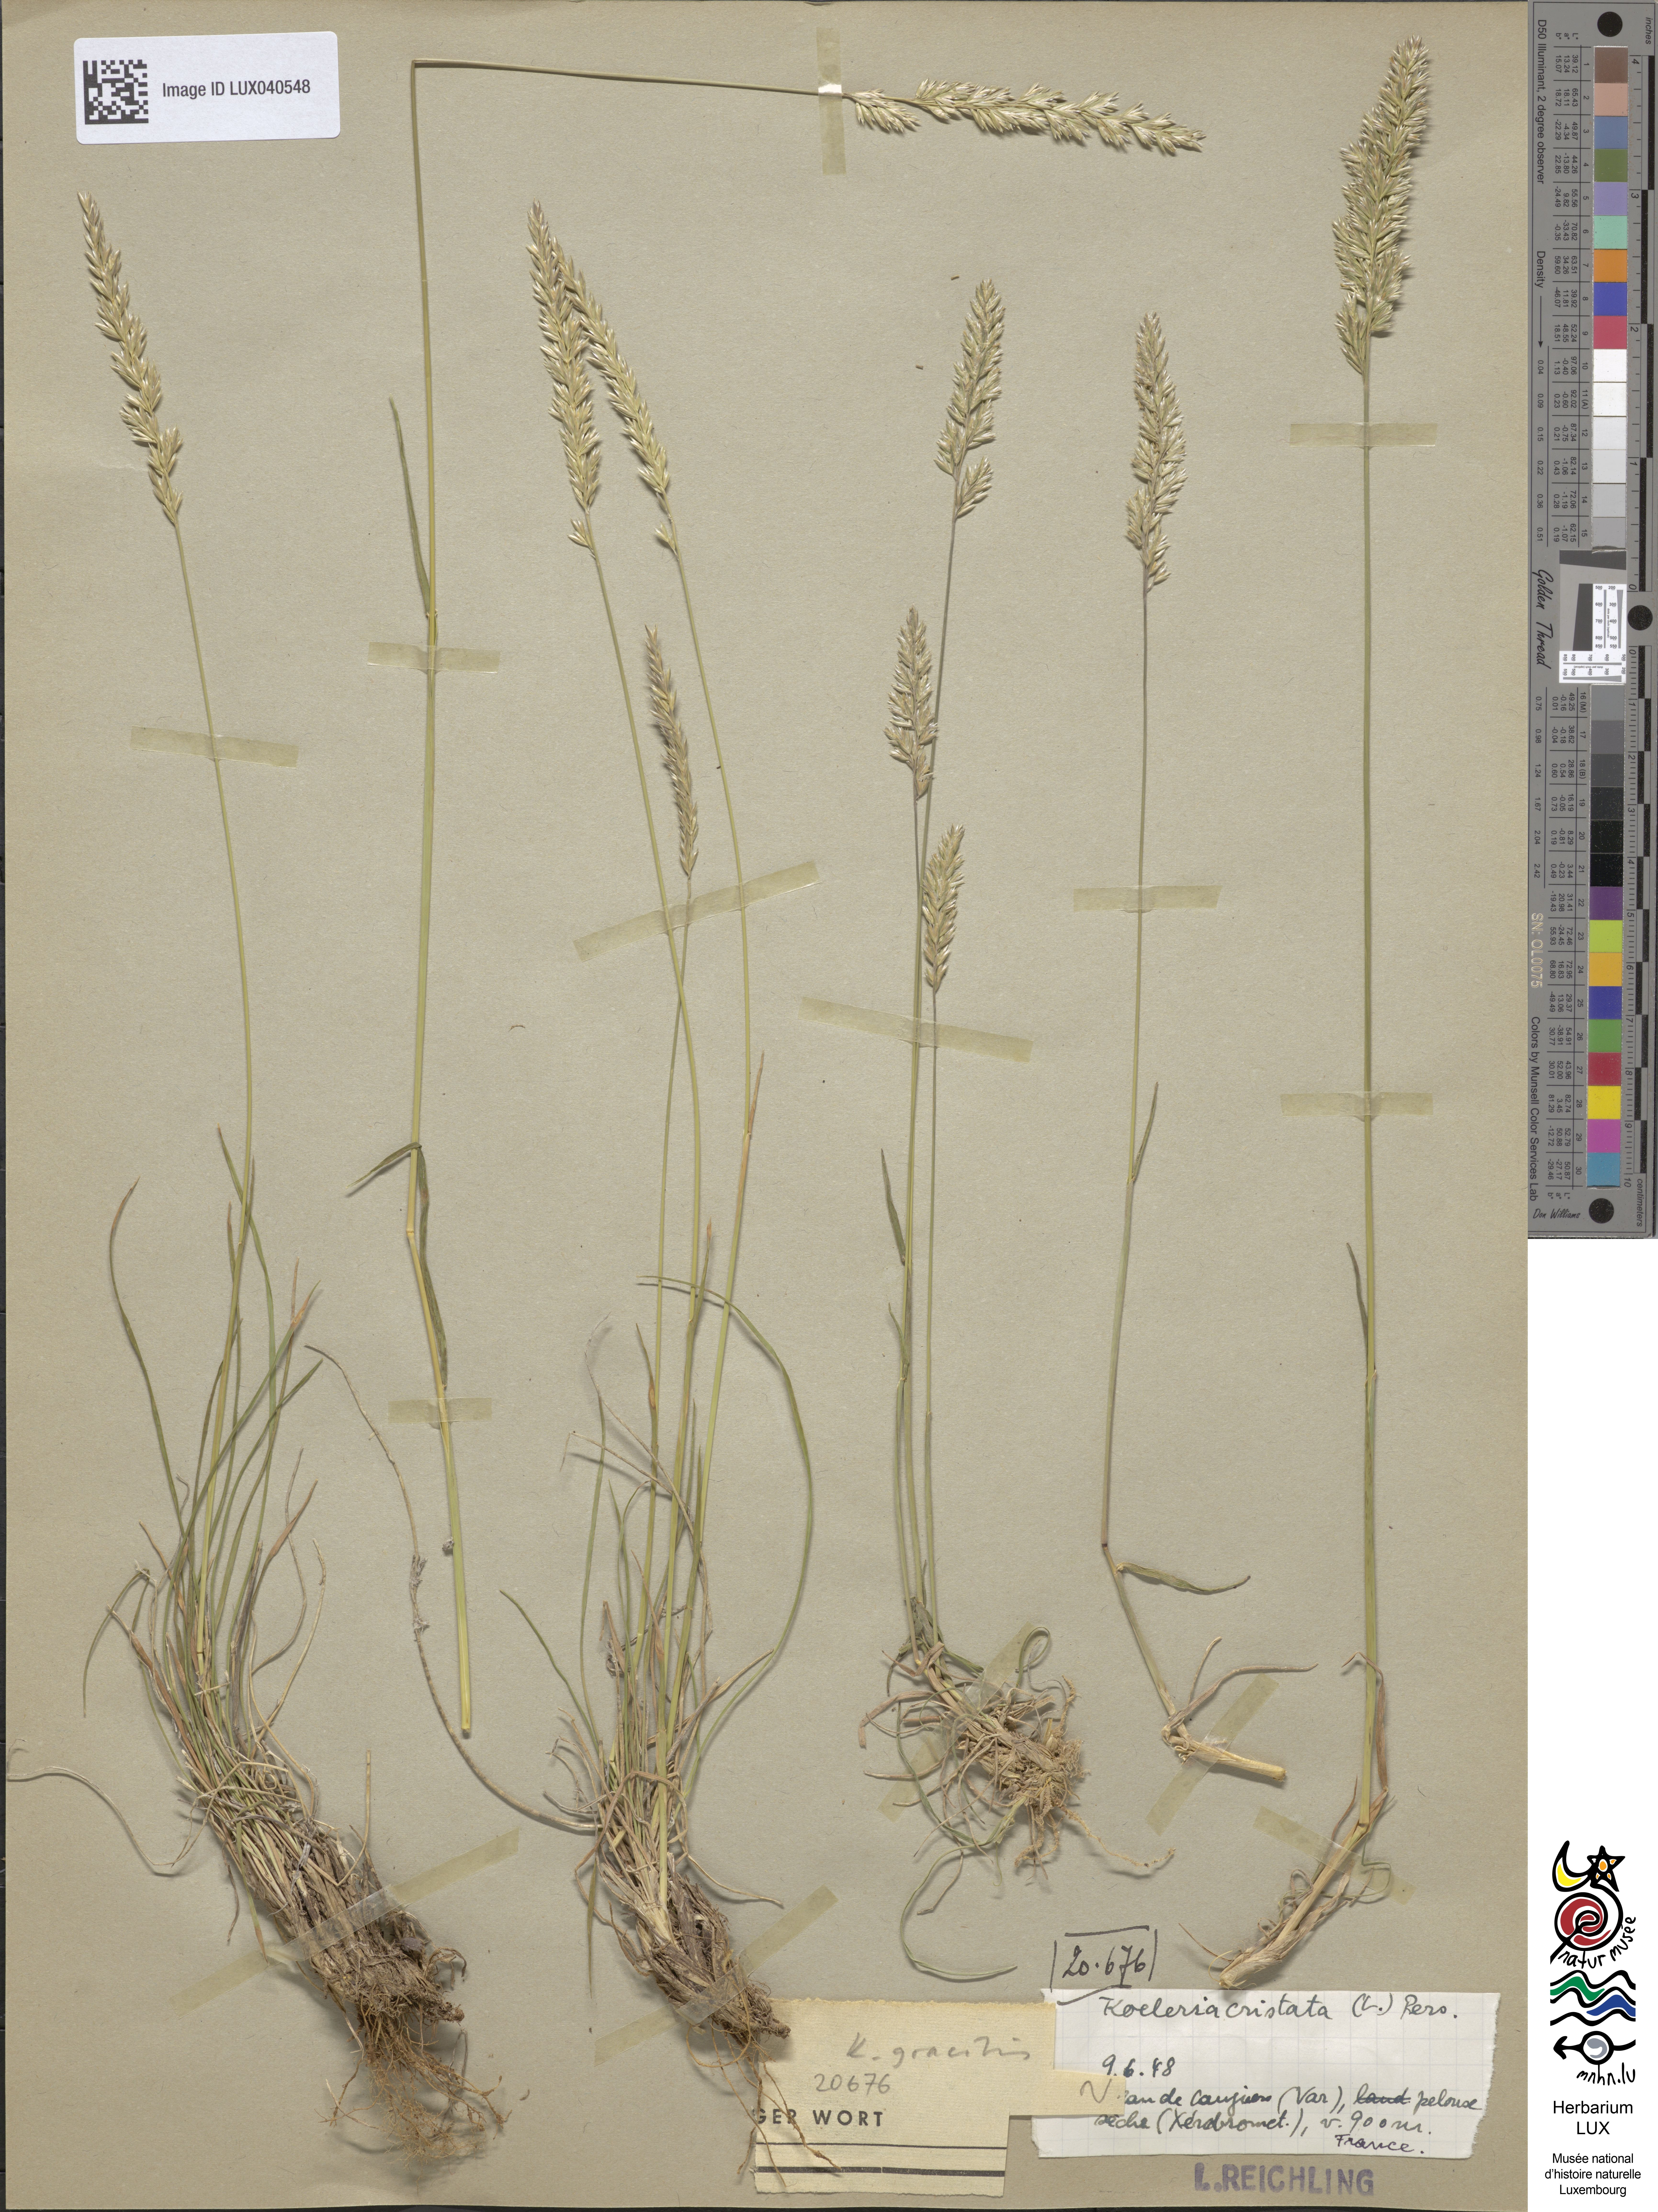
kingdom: Plantae
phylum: Tracheophyta
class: Liliopsida
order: Poales
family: Poaceae
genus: Koeleria
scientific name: Koeleria pyramidata
